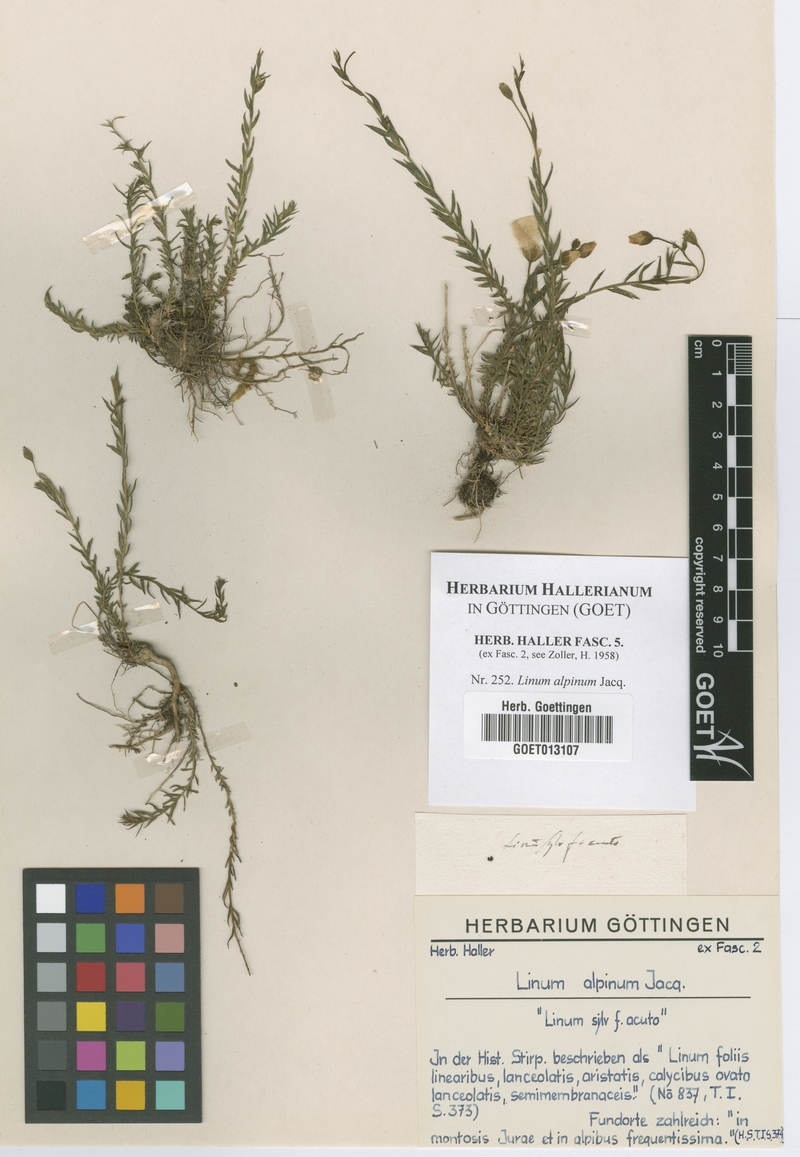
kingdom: Plantae
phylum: Tracheophyta
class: Magnoliopsida
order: Malpighiales
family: Linaceae
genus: Linum
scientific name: Linum alpinum
